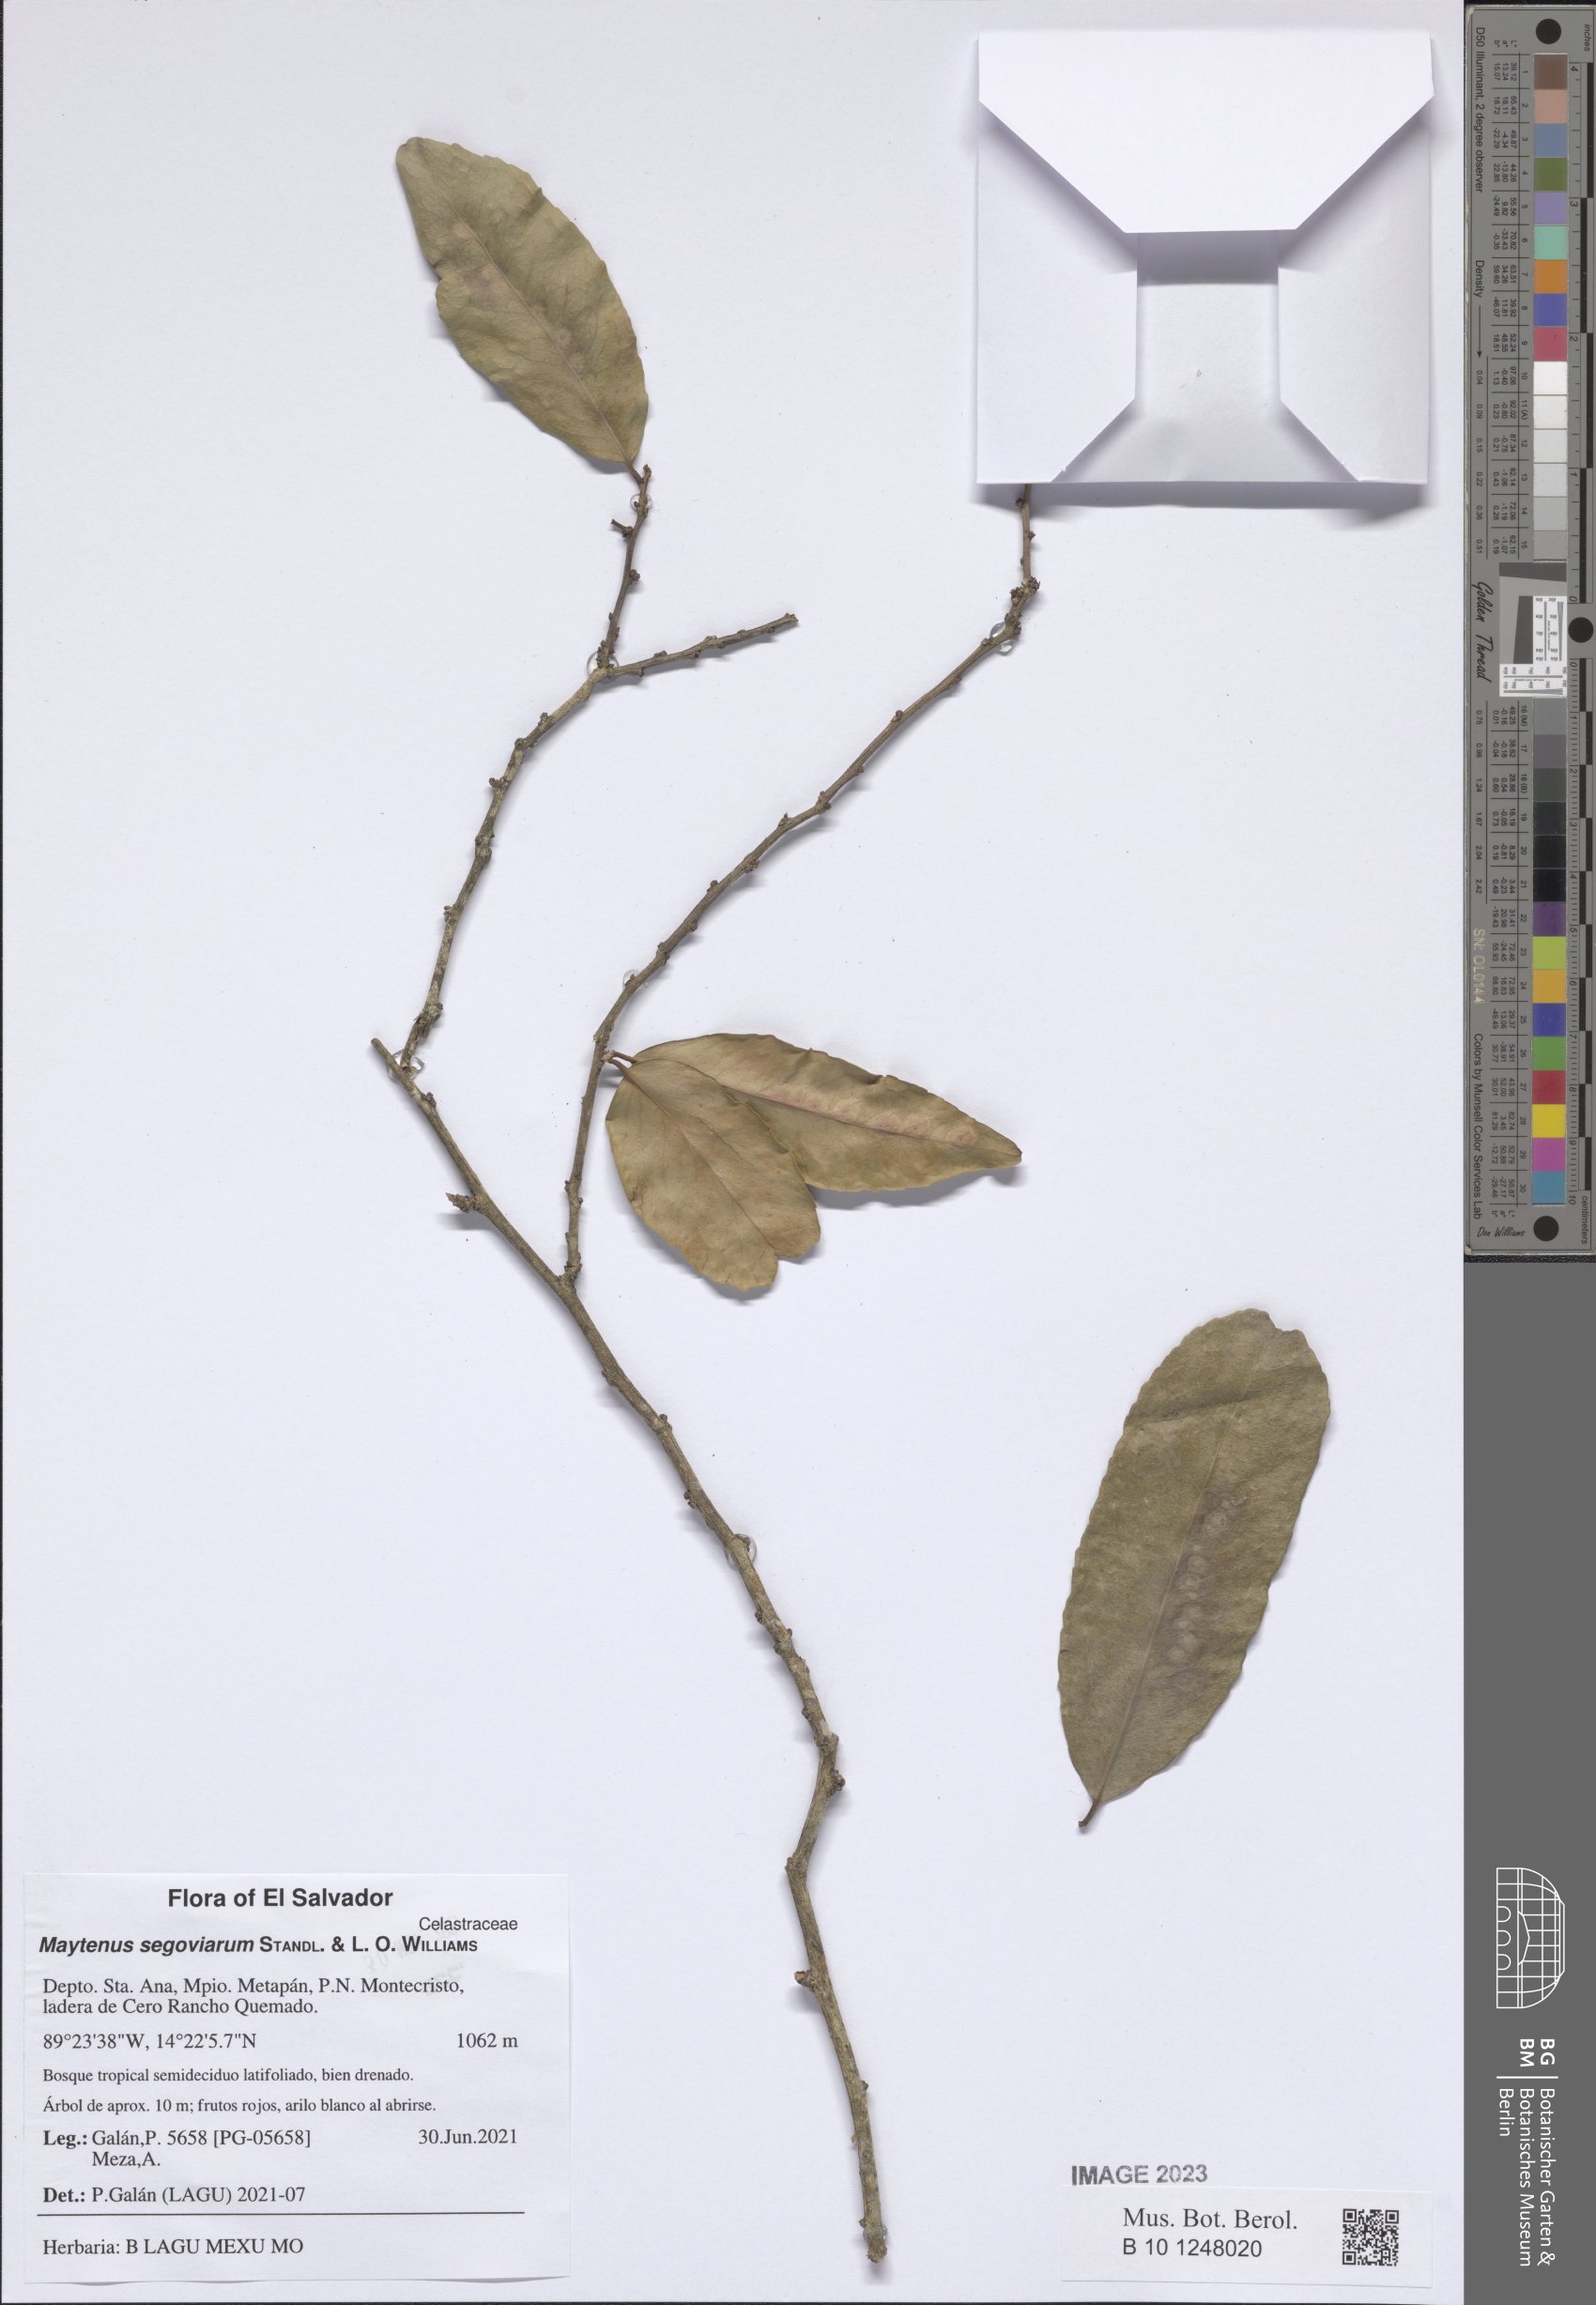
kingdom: Plantae
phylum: Tracheophyta
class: Magnoliopsida
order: Celastrales
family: Celastraceae
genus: Monteverdia
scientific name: Monteverdia segoviarum
